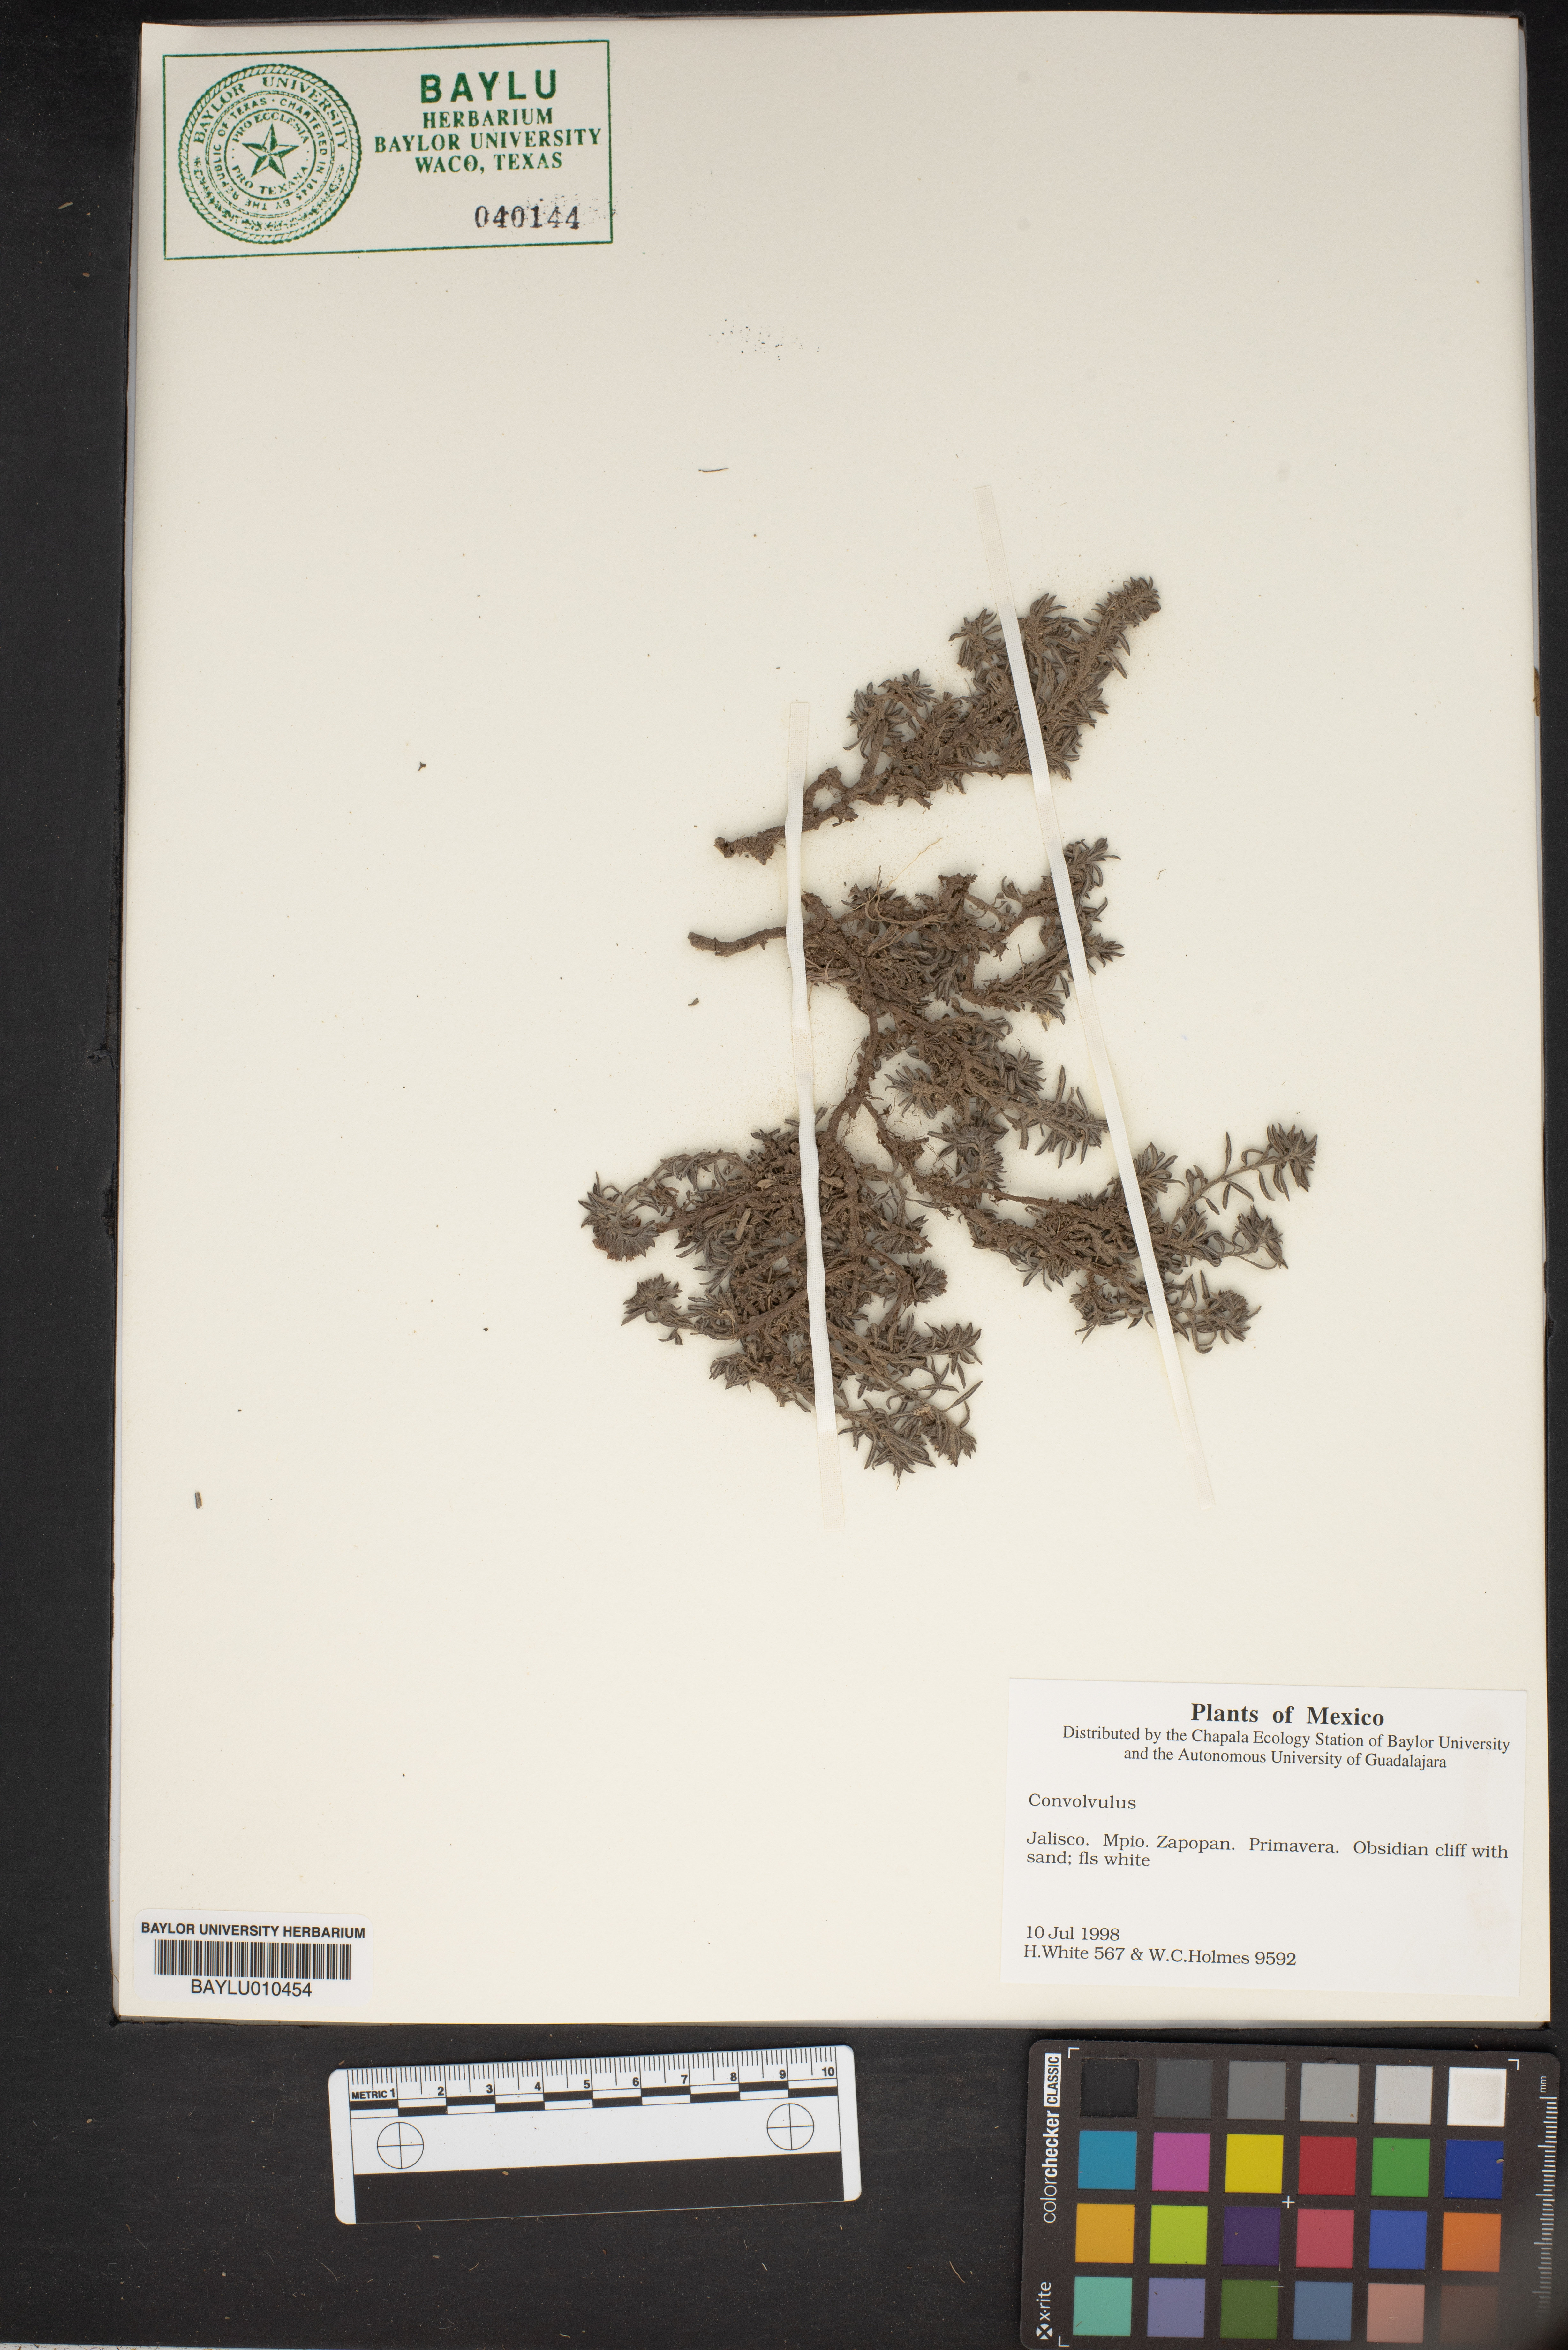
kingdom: Plantae
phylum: Tracheophyta
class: Magnoliopsida
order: Solanales
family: Convolvulaceae
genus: Convolvulus
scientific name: Convolvulus
